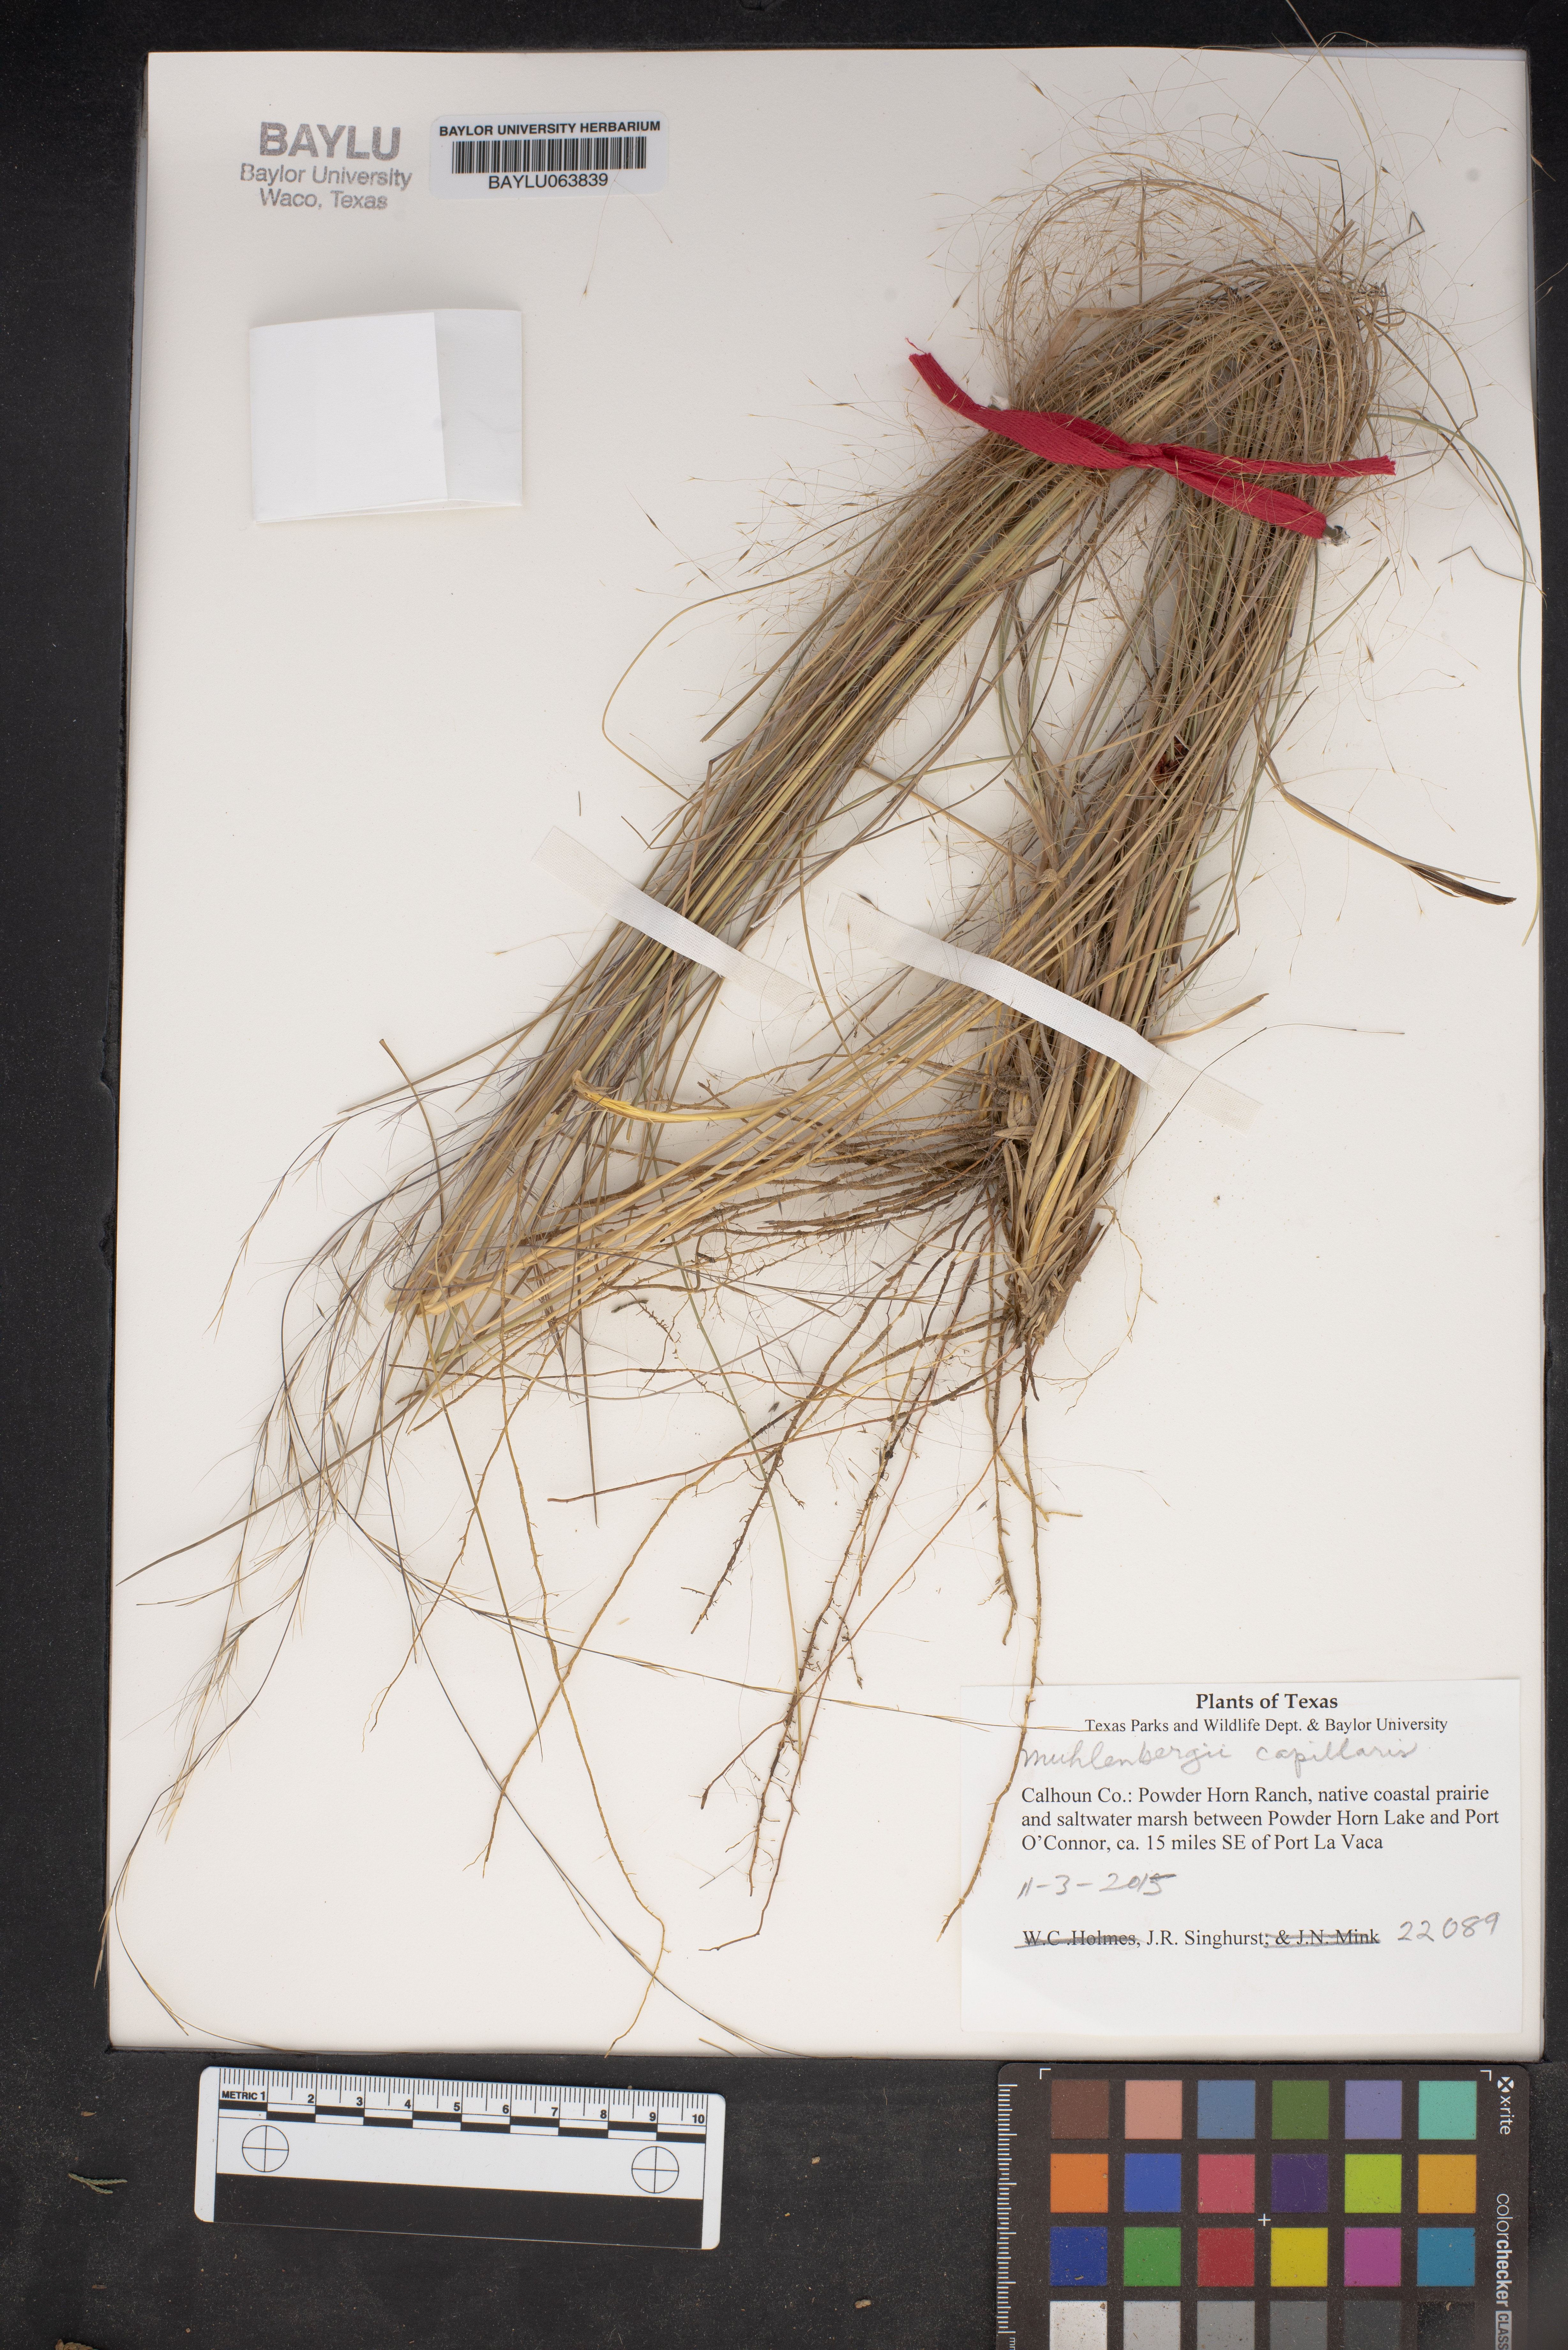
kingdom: Plantae
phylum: Tracheophyta
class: Liliopsida
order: Poales
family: Poaceae
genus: Muhlenbergia
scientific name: Muhlenbergia capillaris
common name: Purple grass
